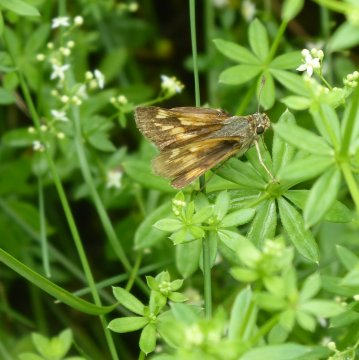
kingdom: Animalia
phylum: Arthropoda
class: Insecta
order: Lepidoptera
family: Hesperiidae
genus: Polites
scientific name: Polites
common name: Long Dash Skipper
